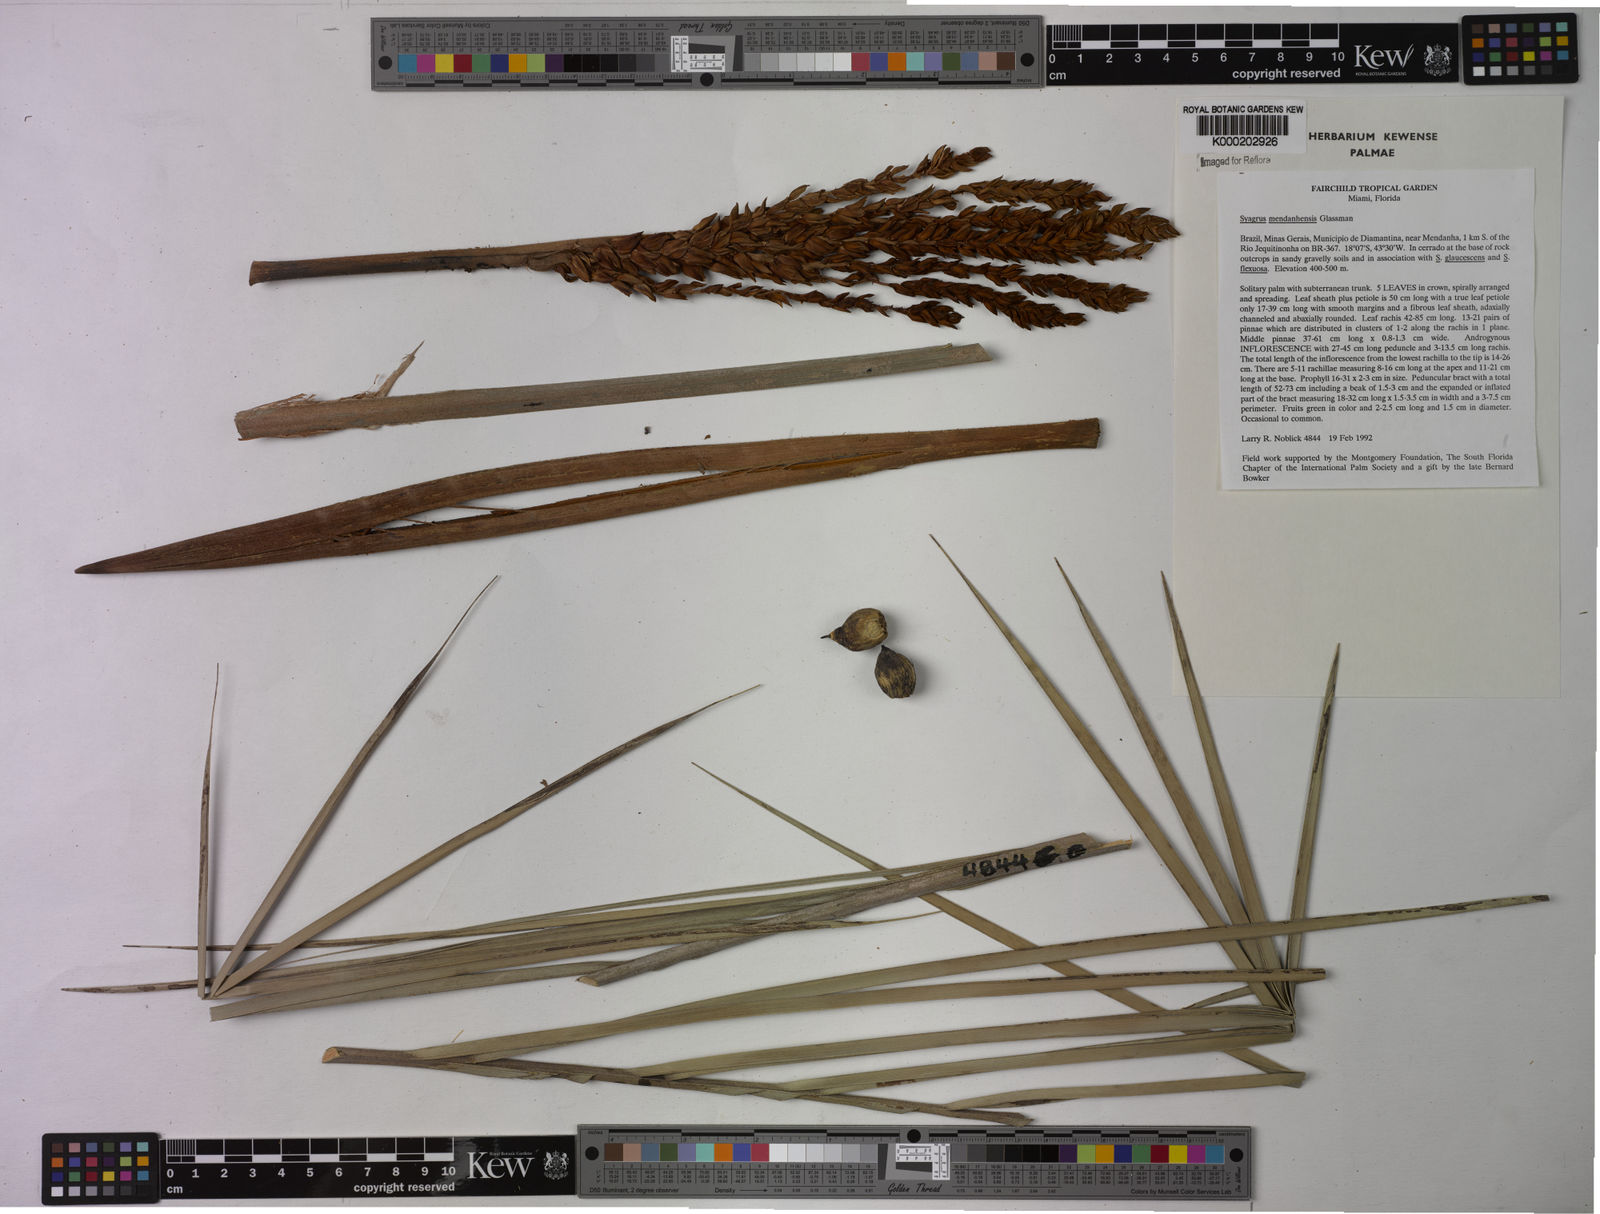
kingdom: Plantae
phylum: Tracheophyta
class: Liliopsida
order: Arecales
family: Arecaceae
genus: Syagrus
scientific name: Syagrus mendanhensis
